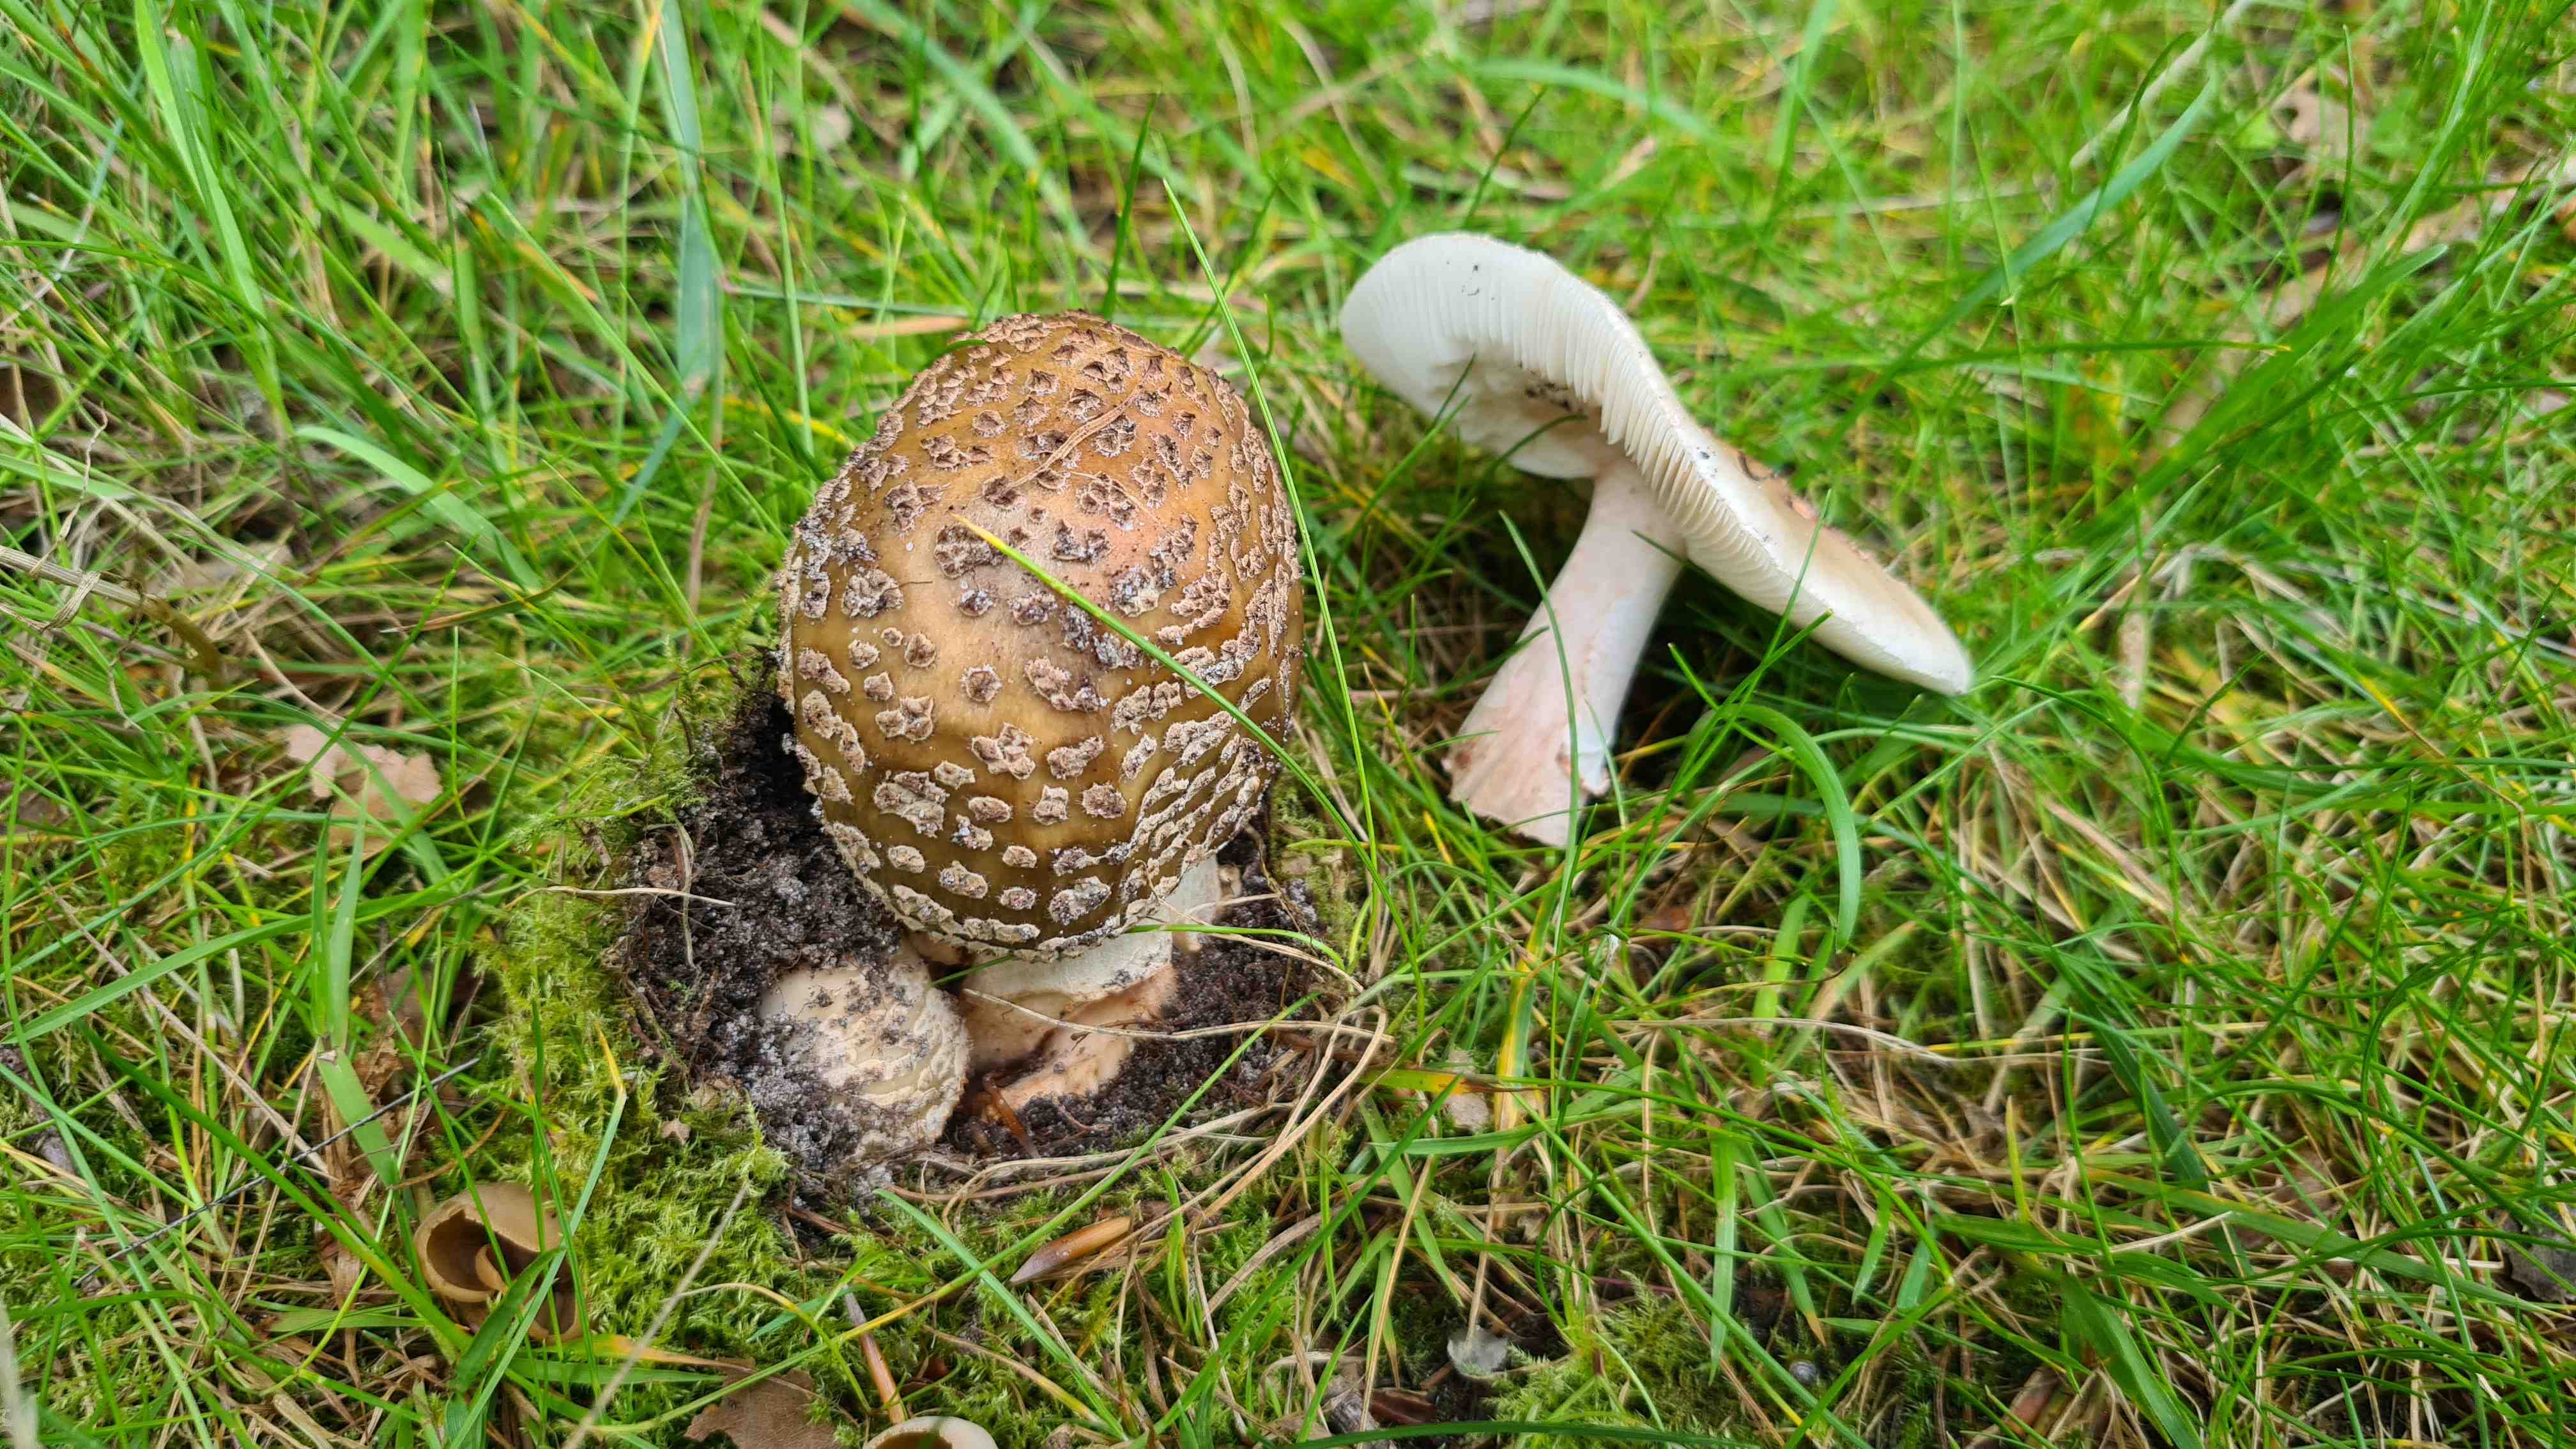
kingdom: Fungi
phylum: Basidiomycota
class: Agaricomycetes
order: Agaricales
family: Amanitaceae
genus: Amanita
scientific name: Amanita rubescens
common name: rødmende fluesvamp
